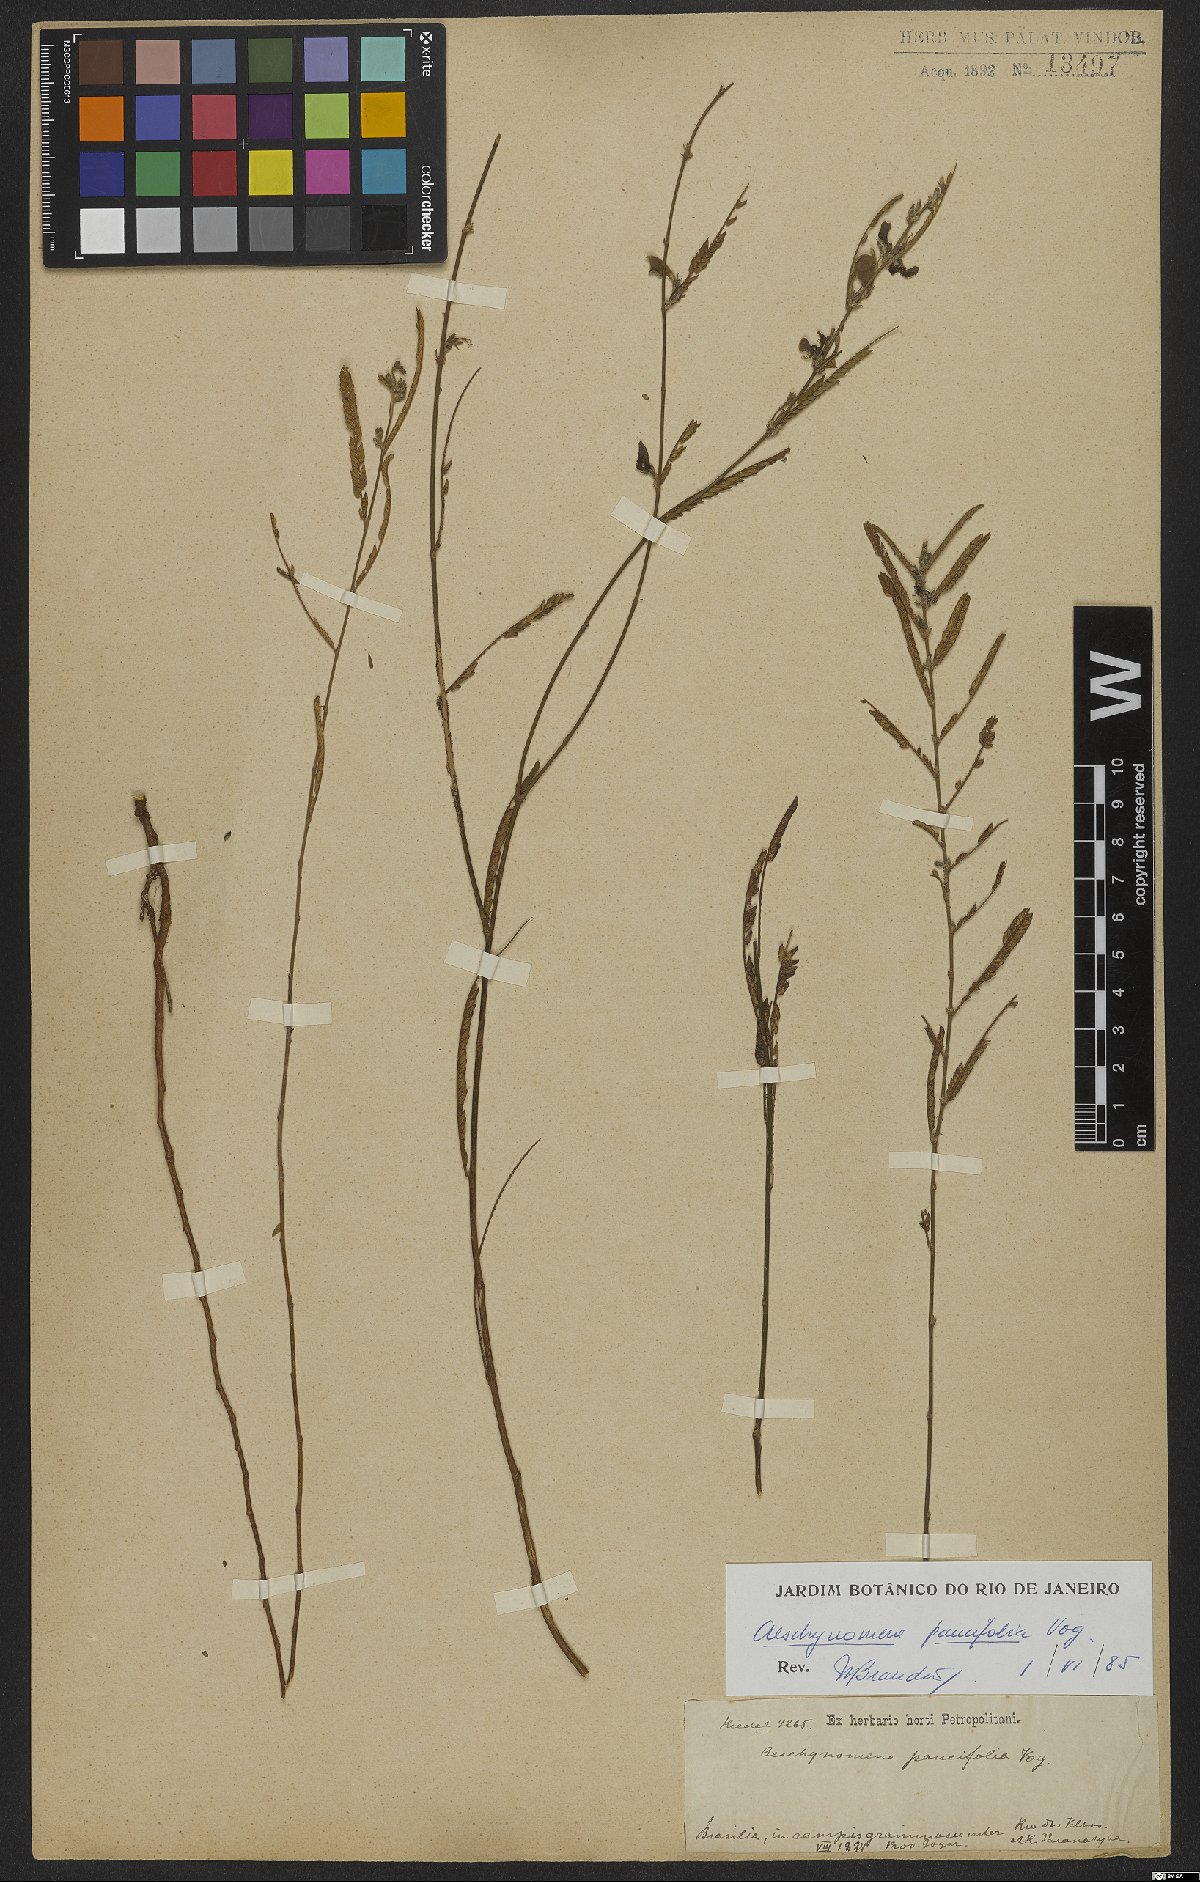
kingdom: Plantae
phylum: Tracheophyta
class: Magnoliopsida
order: Fabales
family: Fabaceae
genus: Ctenodon
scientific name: Ctenodon paucifolius
